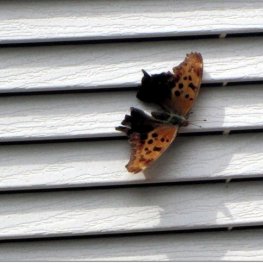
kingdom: Animalia
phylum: Arthropoda
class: Insecta
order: Lepidoptera
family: Nymphalidae
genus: Polygonia
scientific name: Polygonia interrogationis
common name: Question Mark
